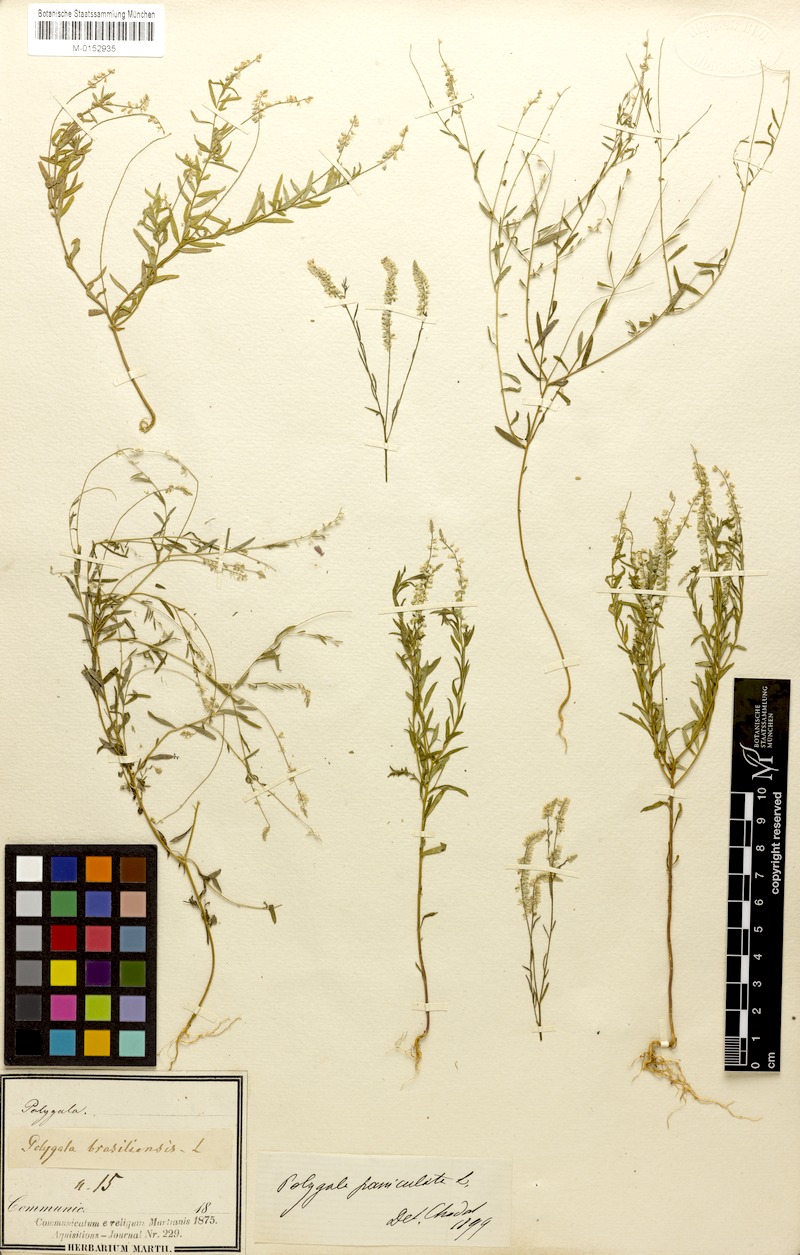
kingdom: Plantae
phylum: Tracheophyta
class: Magnoliopsida
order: Fabales
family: Polygalaceae
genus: Polygala
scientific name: Polygala paniculata
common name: Orosne
